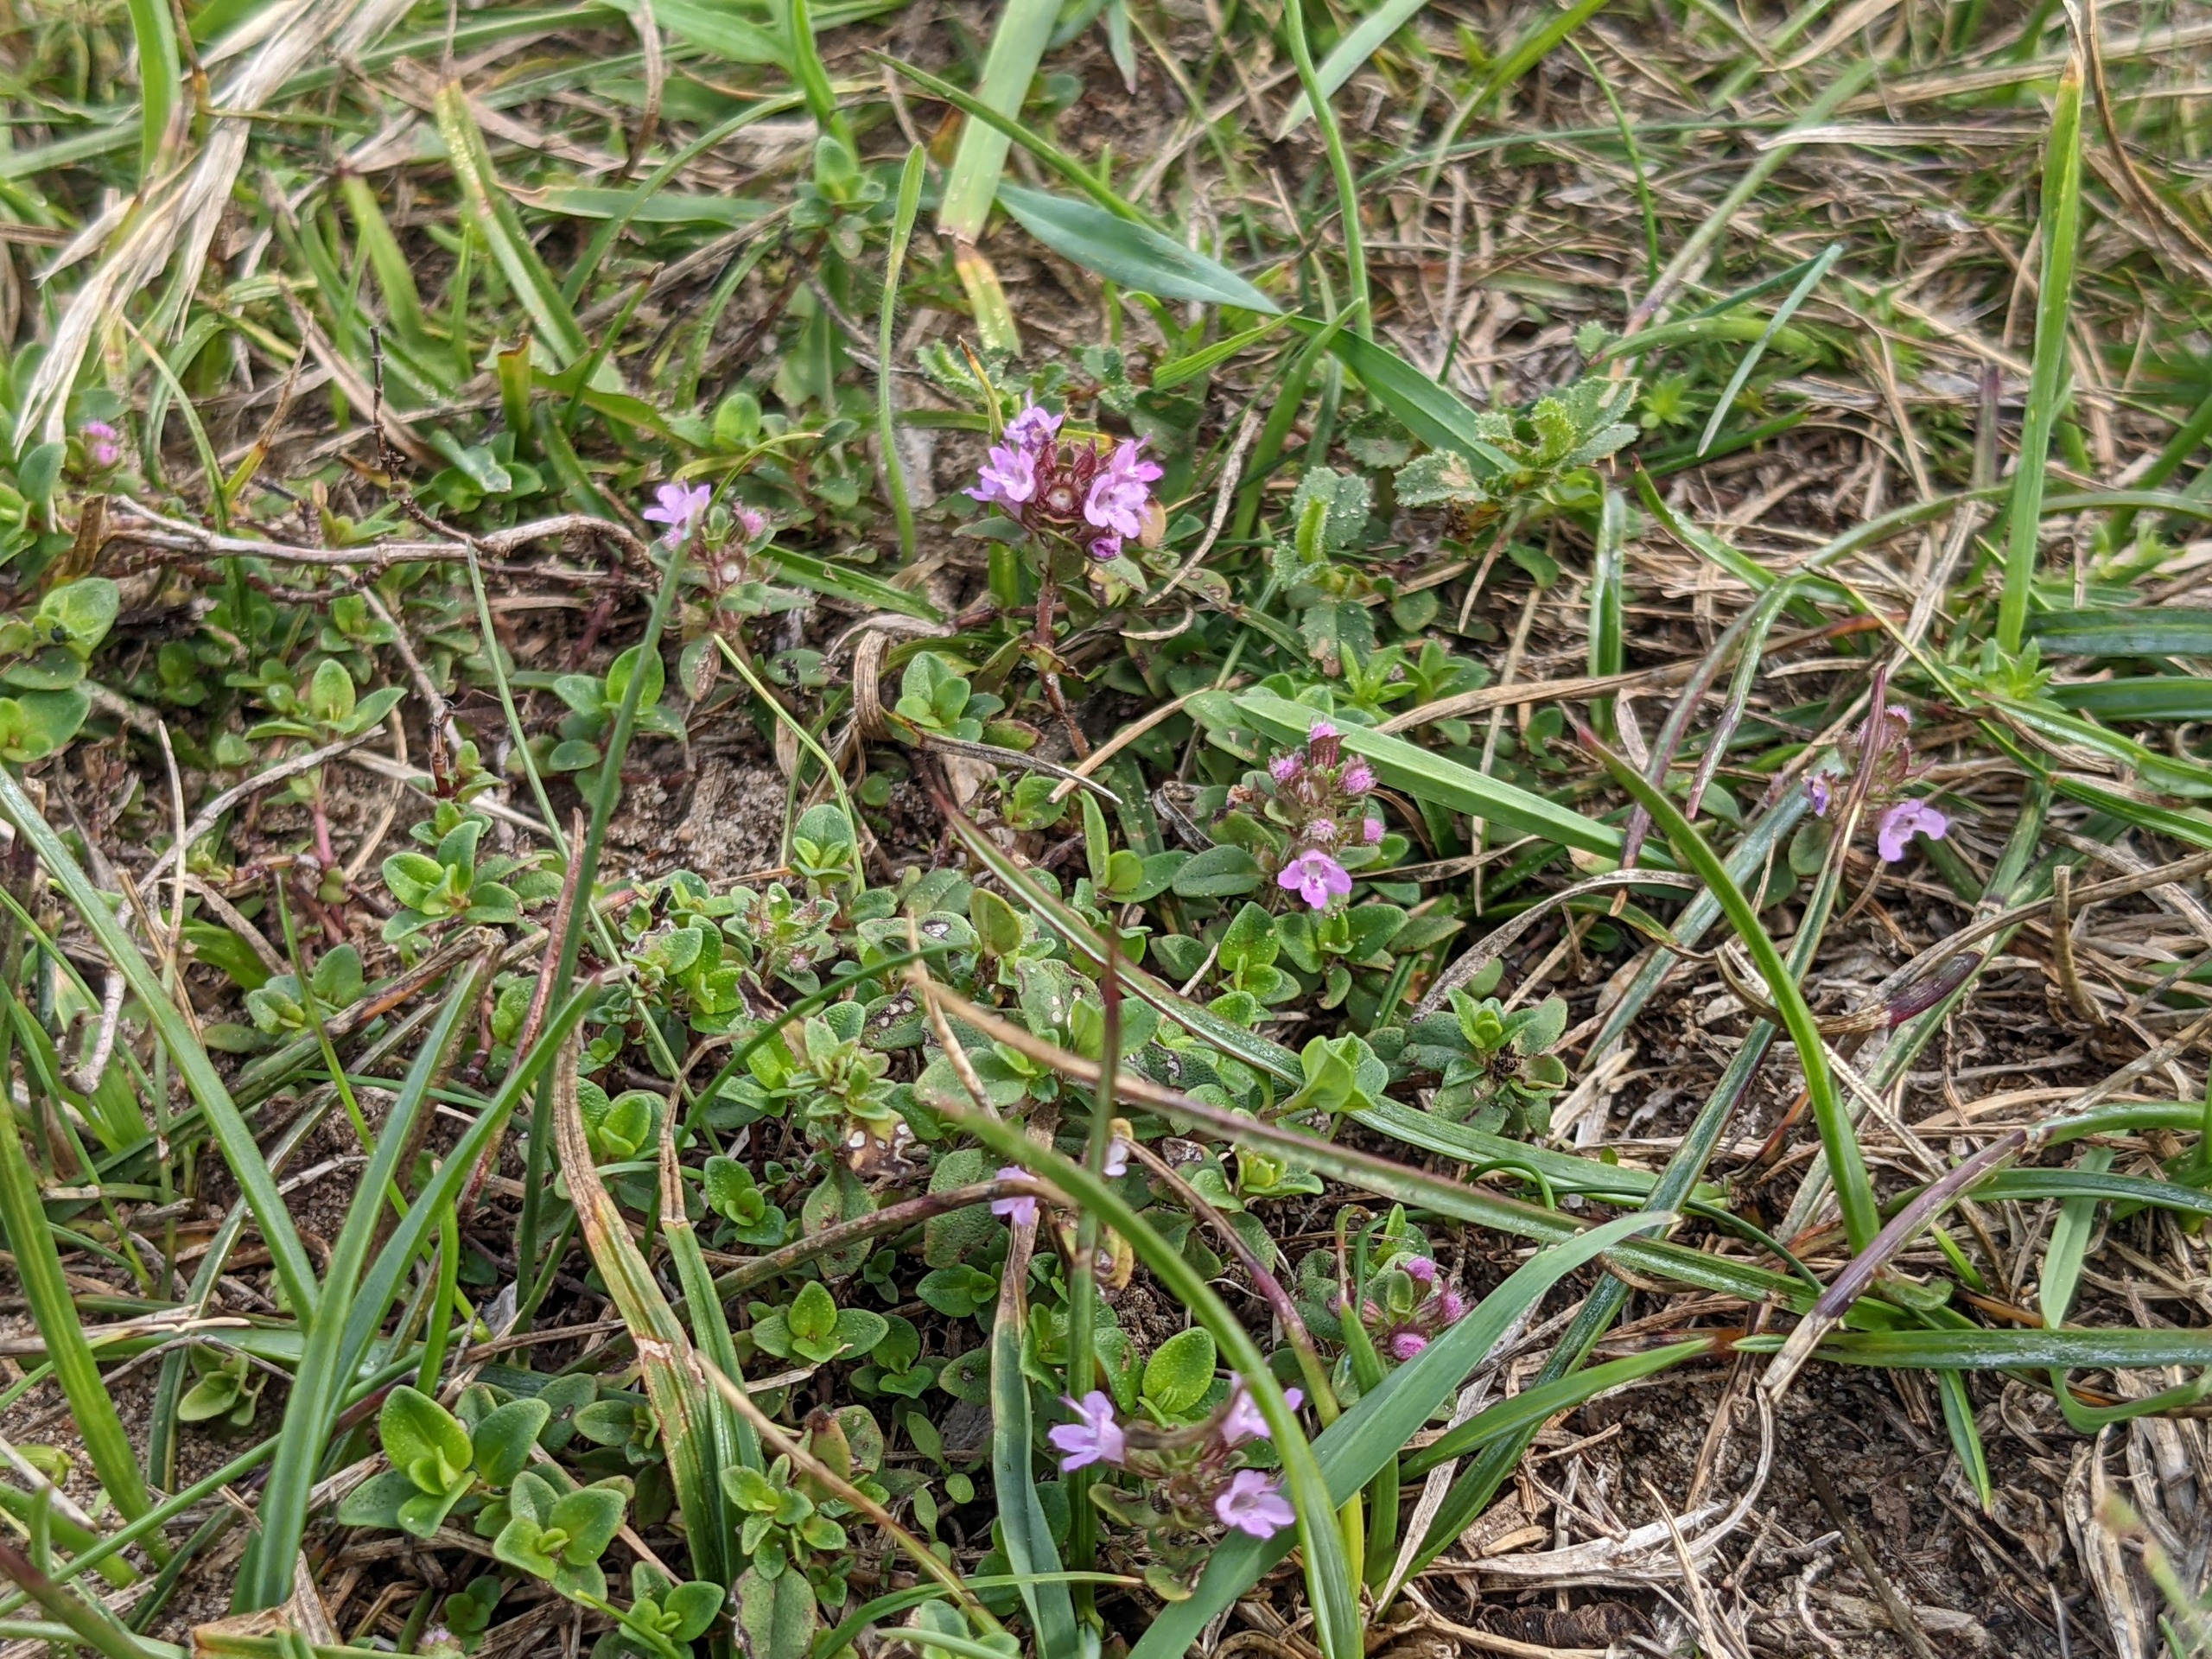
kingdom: Plantae
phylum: Tracheophyta
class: Magnoliopsida
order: Lamiales
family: Lamiaceae
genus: Thymus
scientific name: Thymus pulegioides
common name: Bredbladet timian
